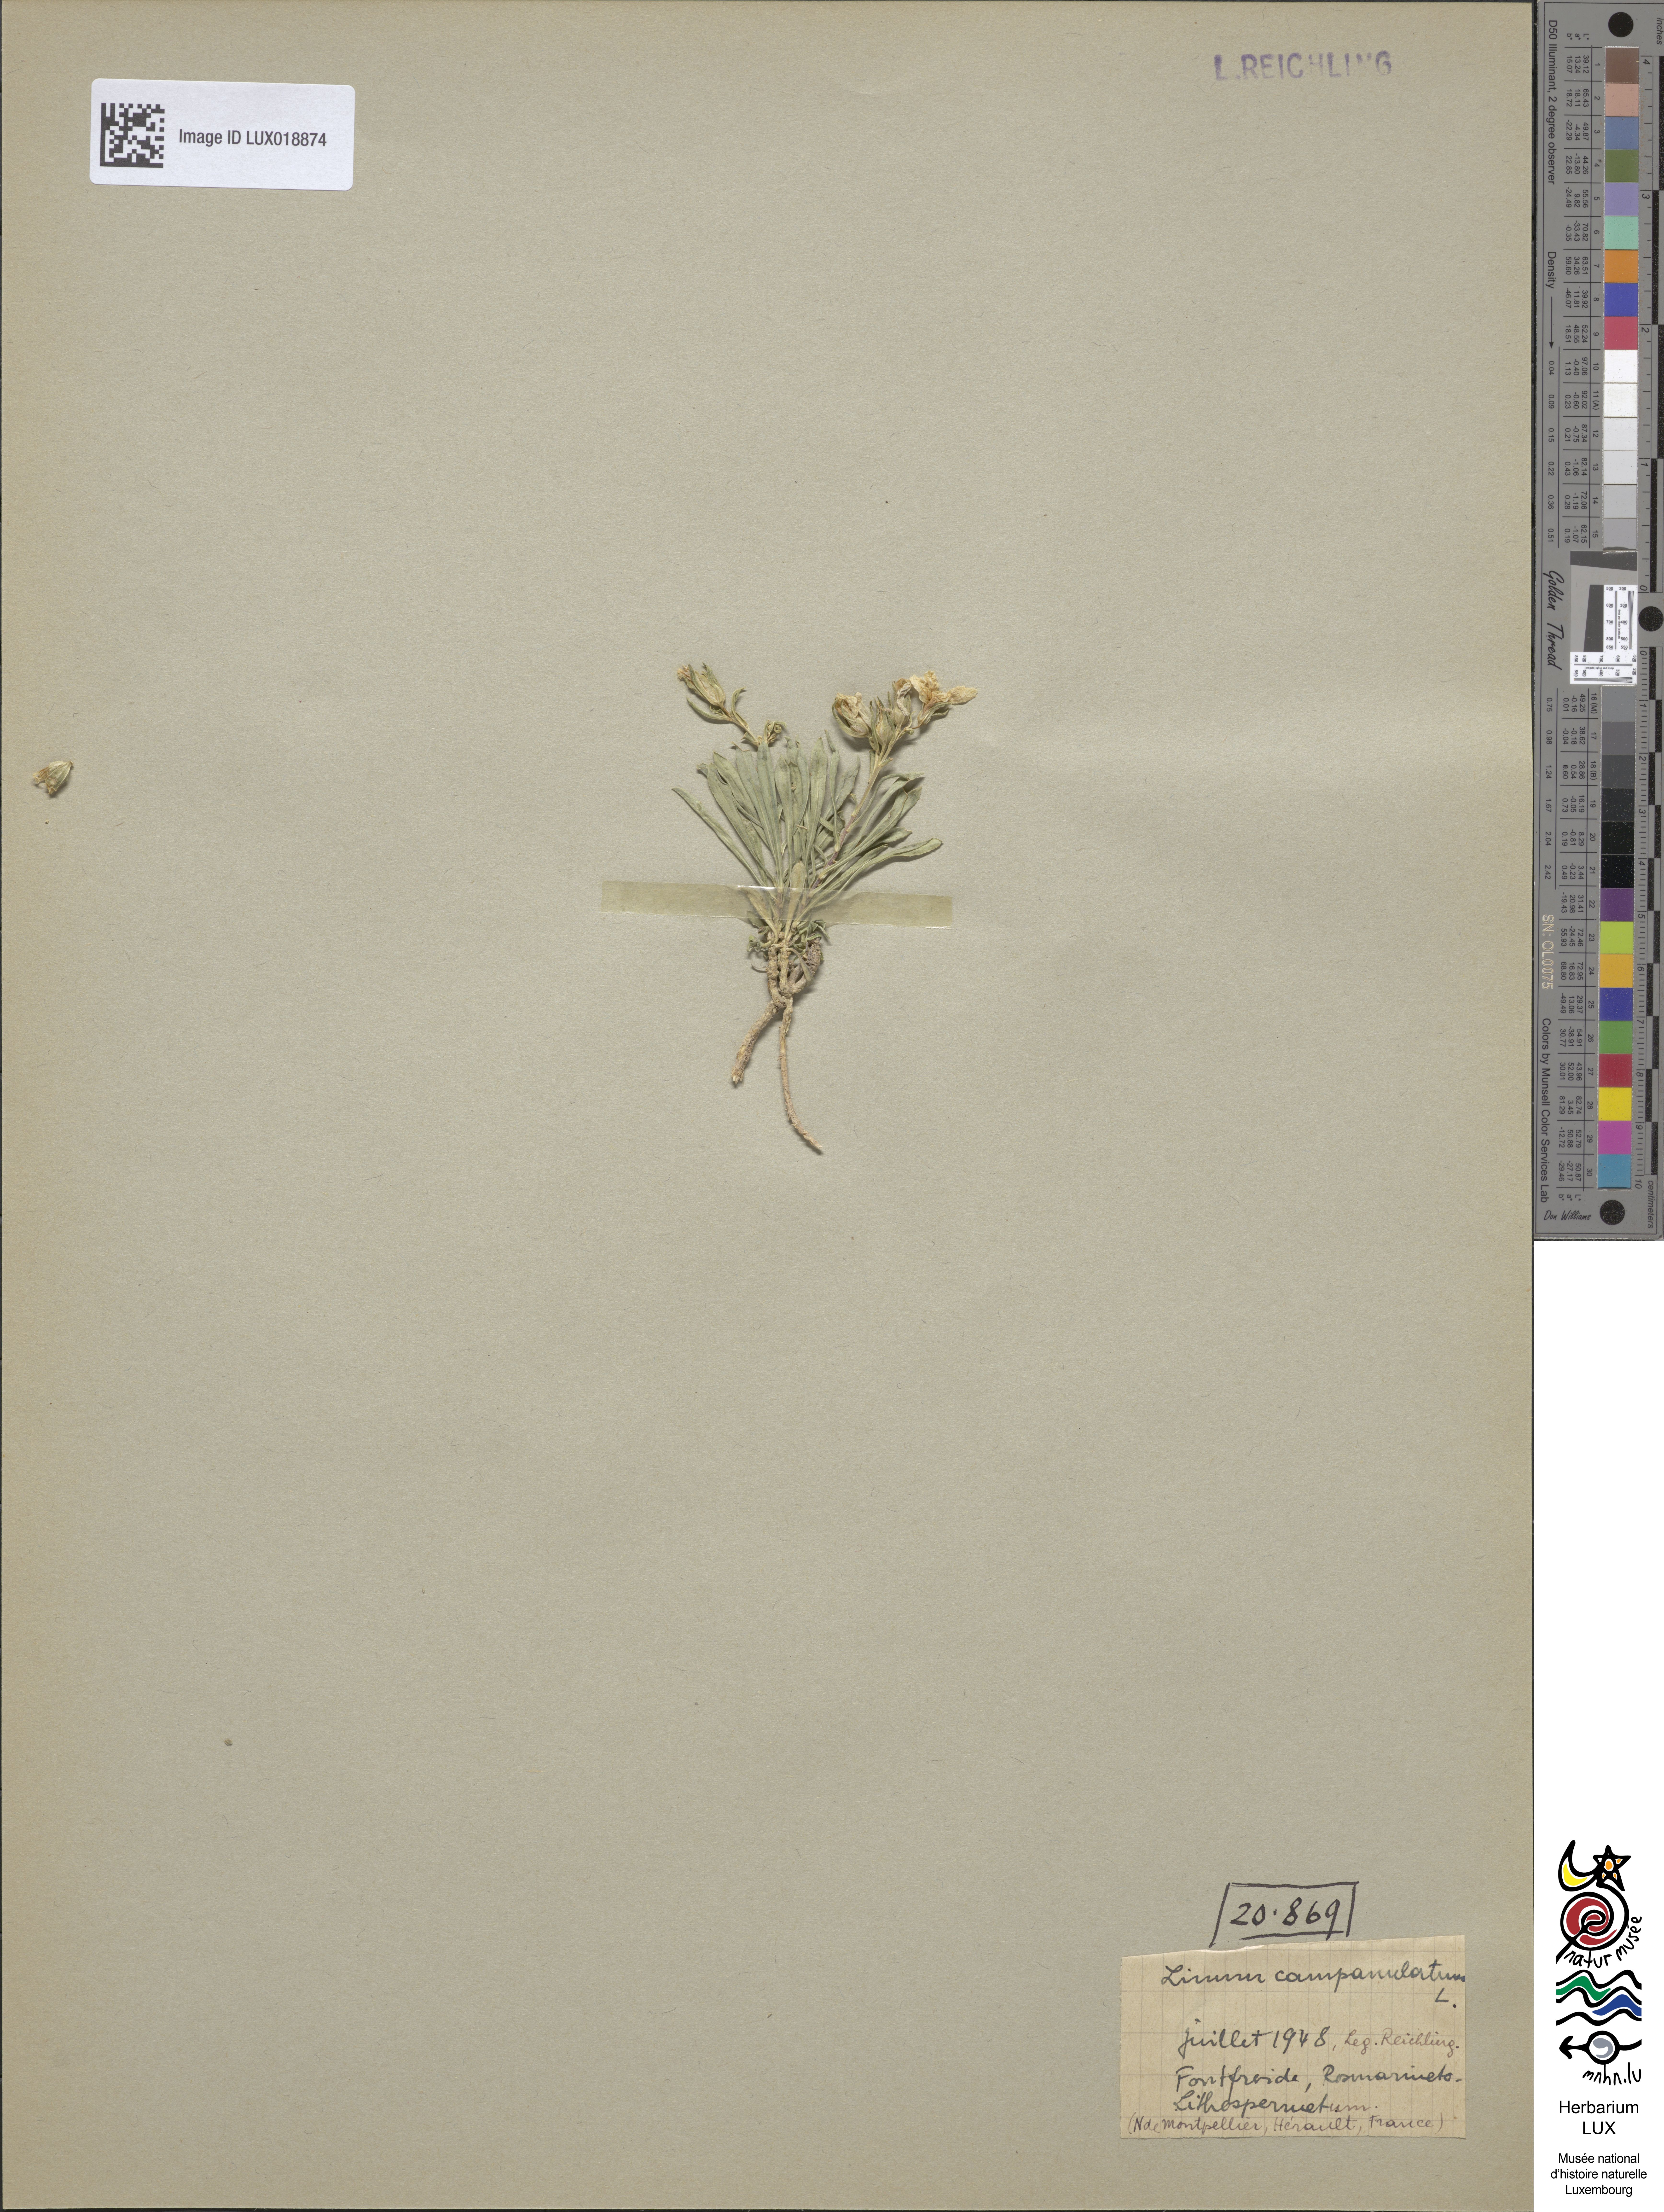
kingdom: Plantae
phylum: Tracheophyta
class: Magnoliopsida
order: Malpighiales
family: Linaceae
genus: Linum
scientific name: Linum campanulatum
